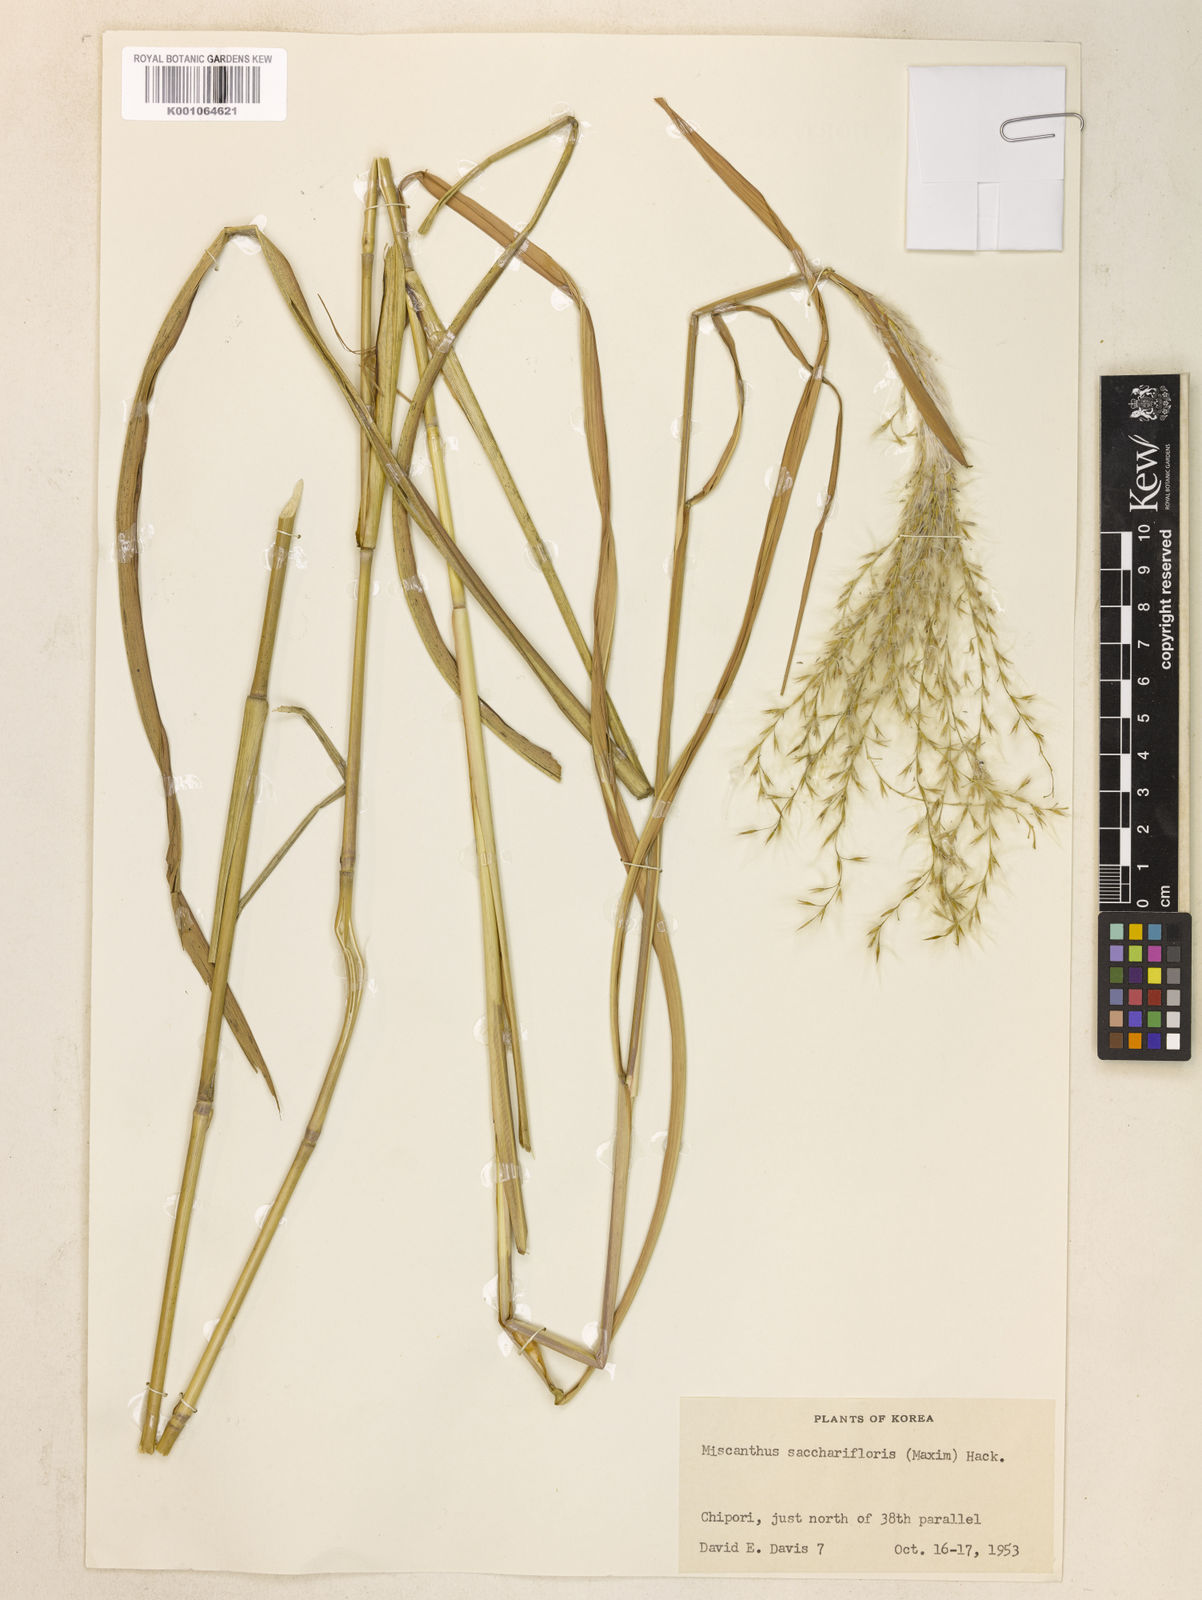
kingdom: Plantae
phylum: Tracheophyta
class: Liliopsida
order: Poales
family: Poaceae
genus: Miscanthus
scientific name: Miscanthus
